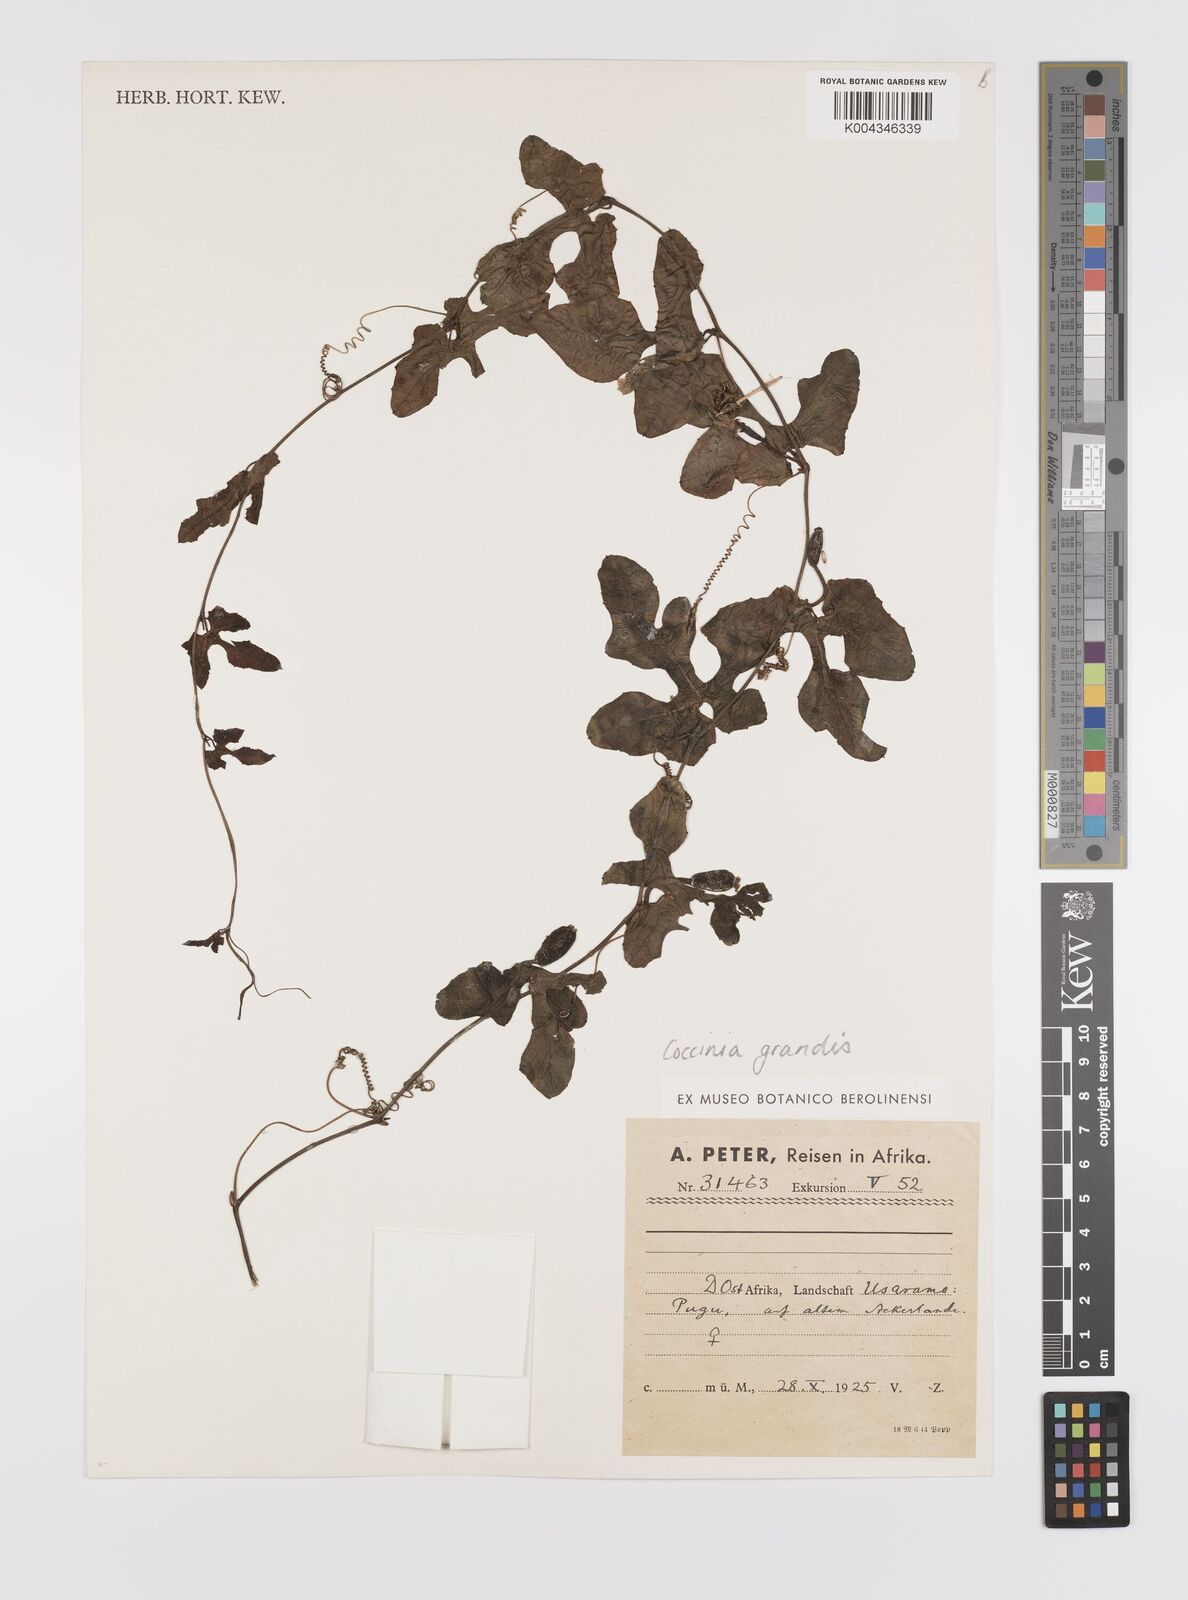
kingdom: Plantae
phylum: Tracheophyta
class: Magnoliopsida
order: Cucurbitales
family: Cucurbitaceae
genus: Coccinia
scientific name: Coccinia grandis
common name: Ivy gourd
